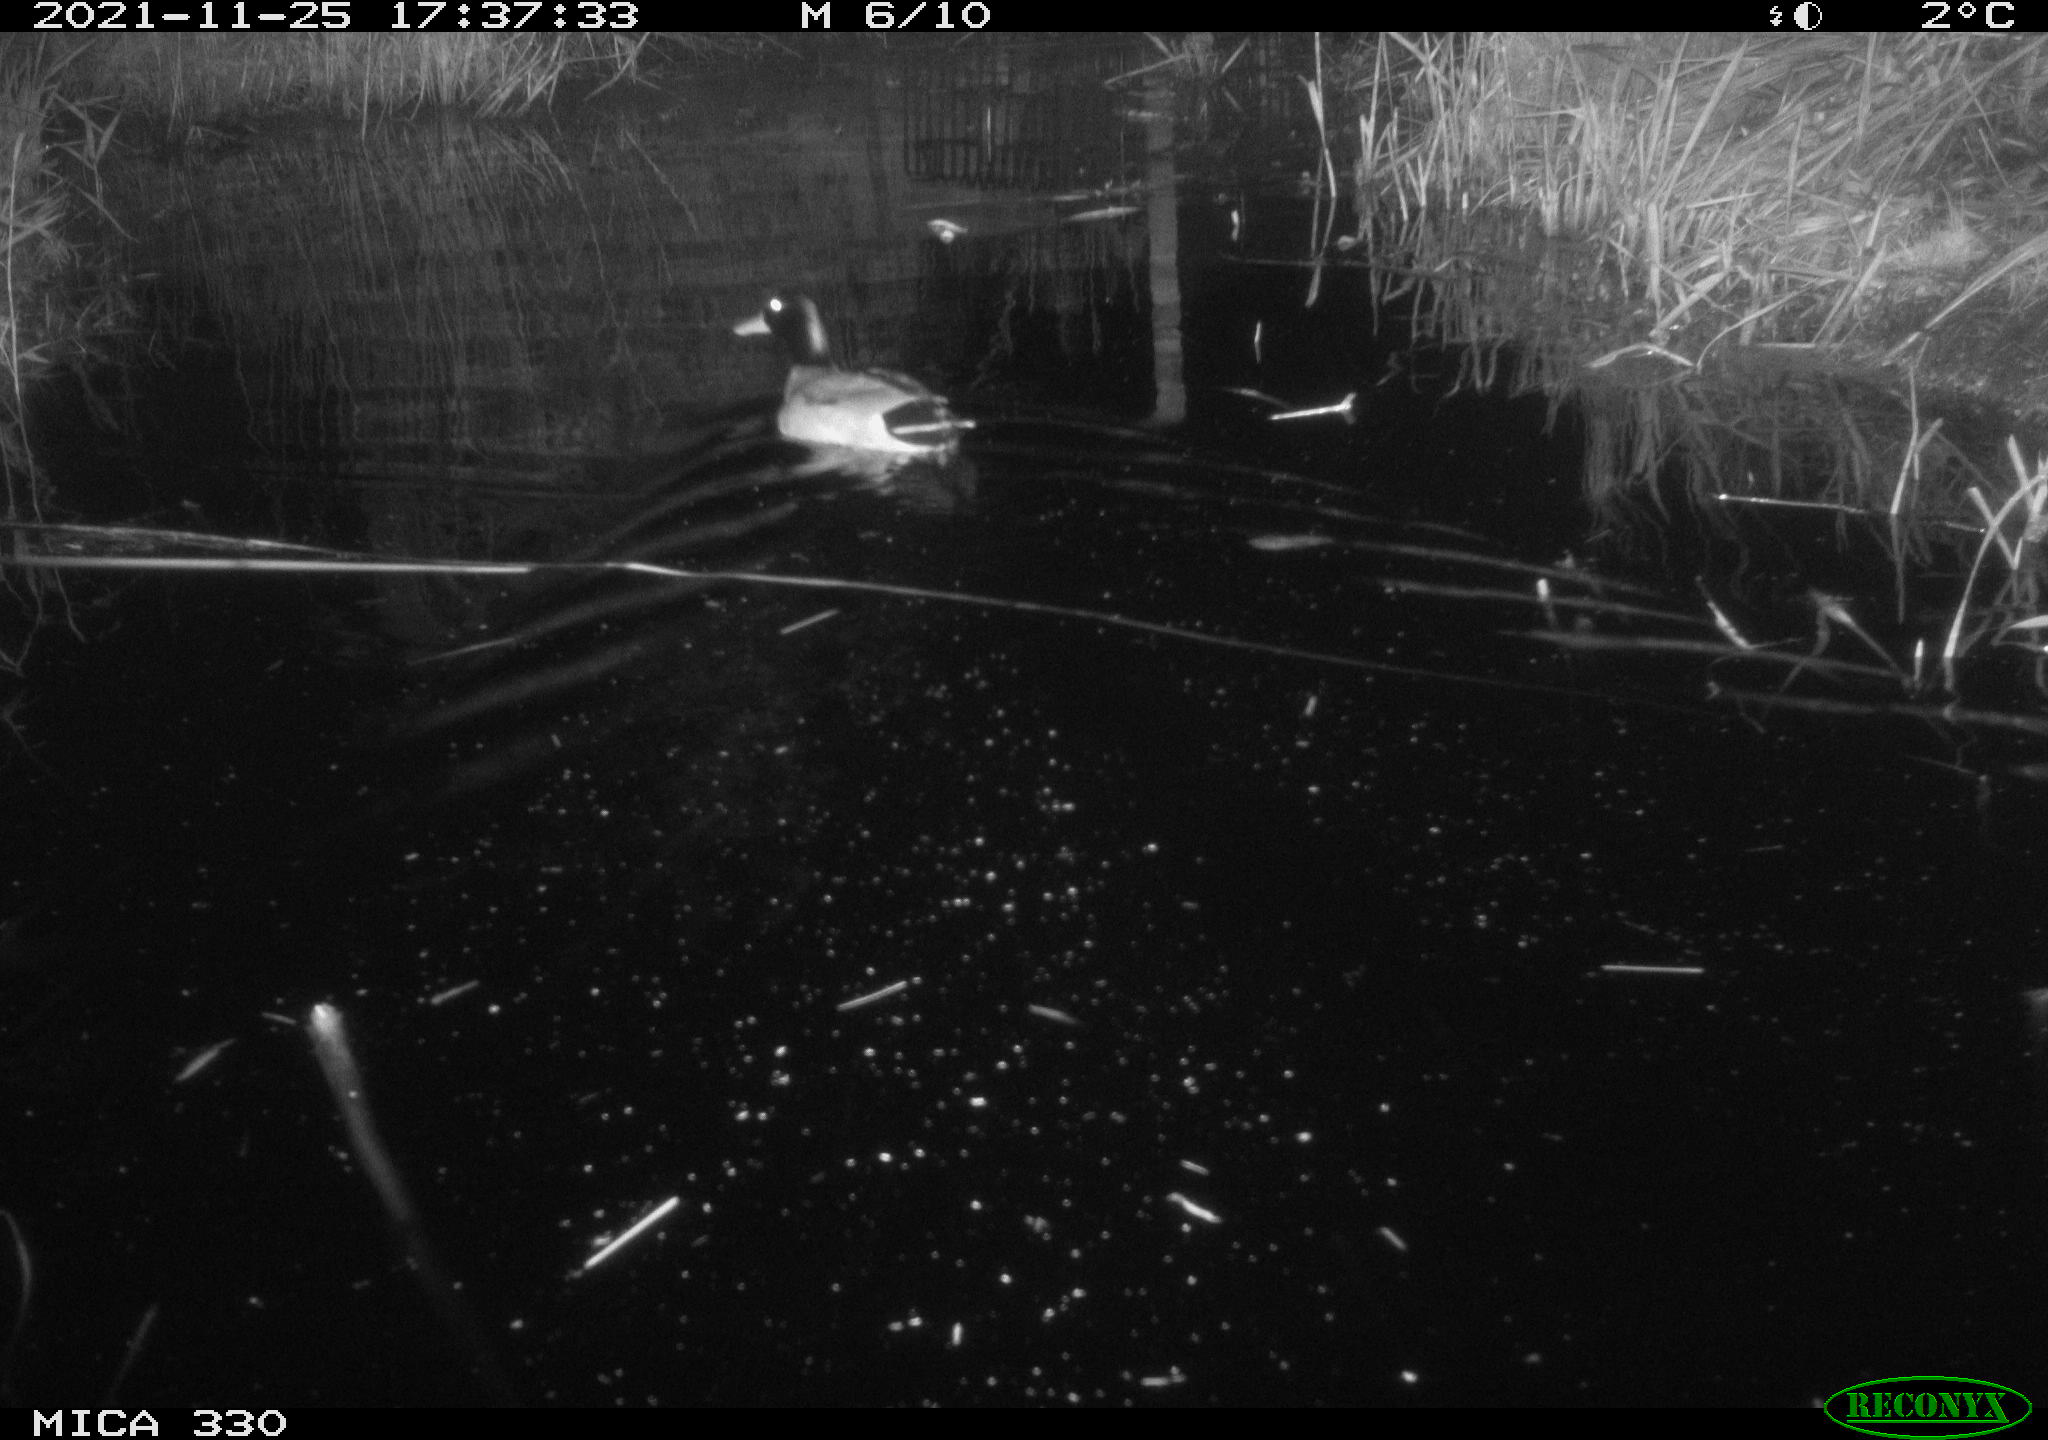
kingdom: Animalia
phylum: Chordata
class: Aves
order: Anseriformes
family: Anatidae
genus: Anas
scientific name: Anas platyrhynchos
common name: Mallard
